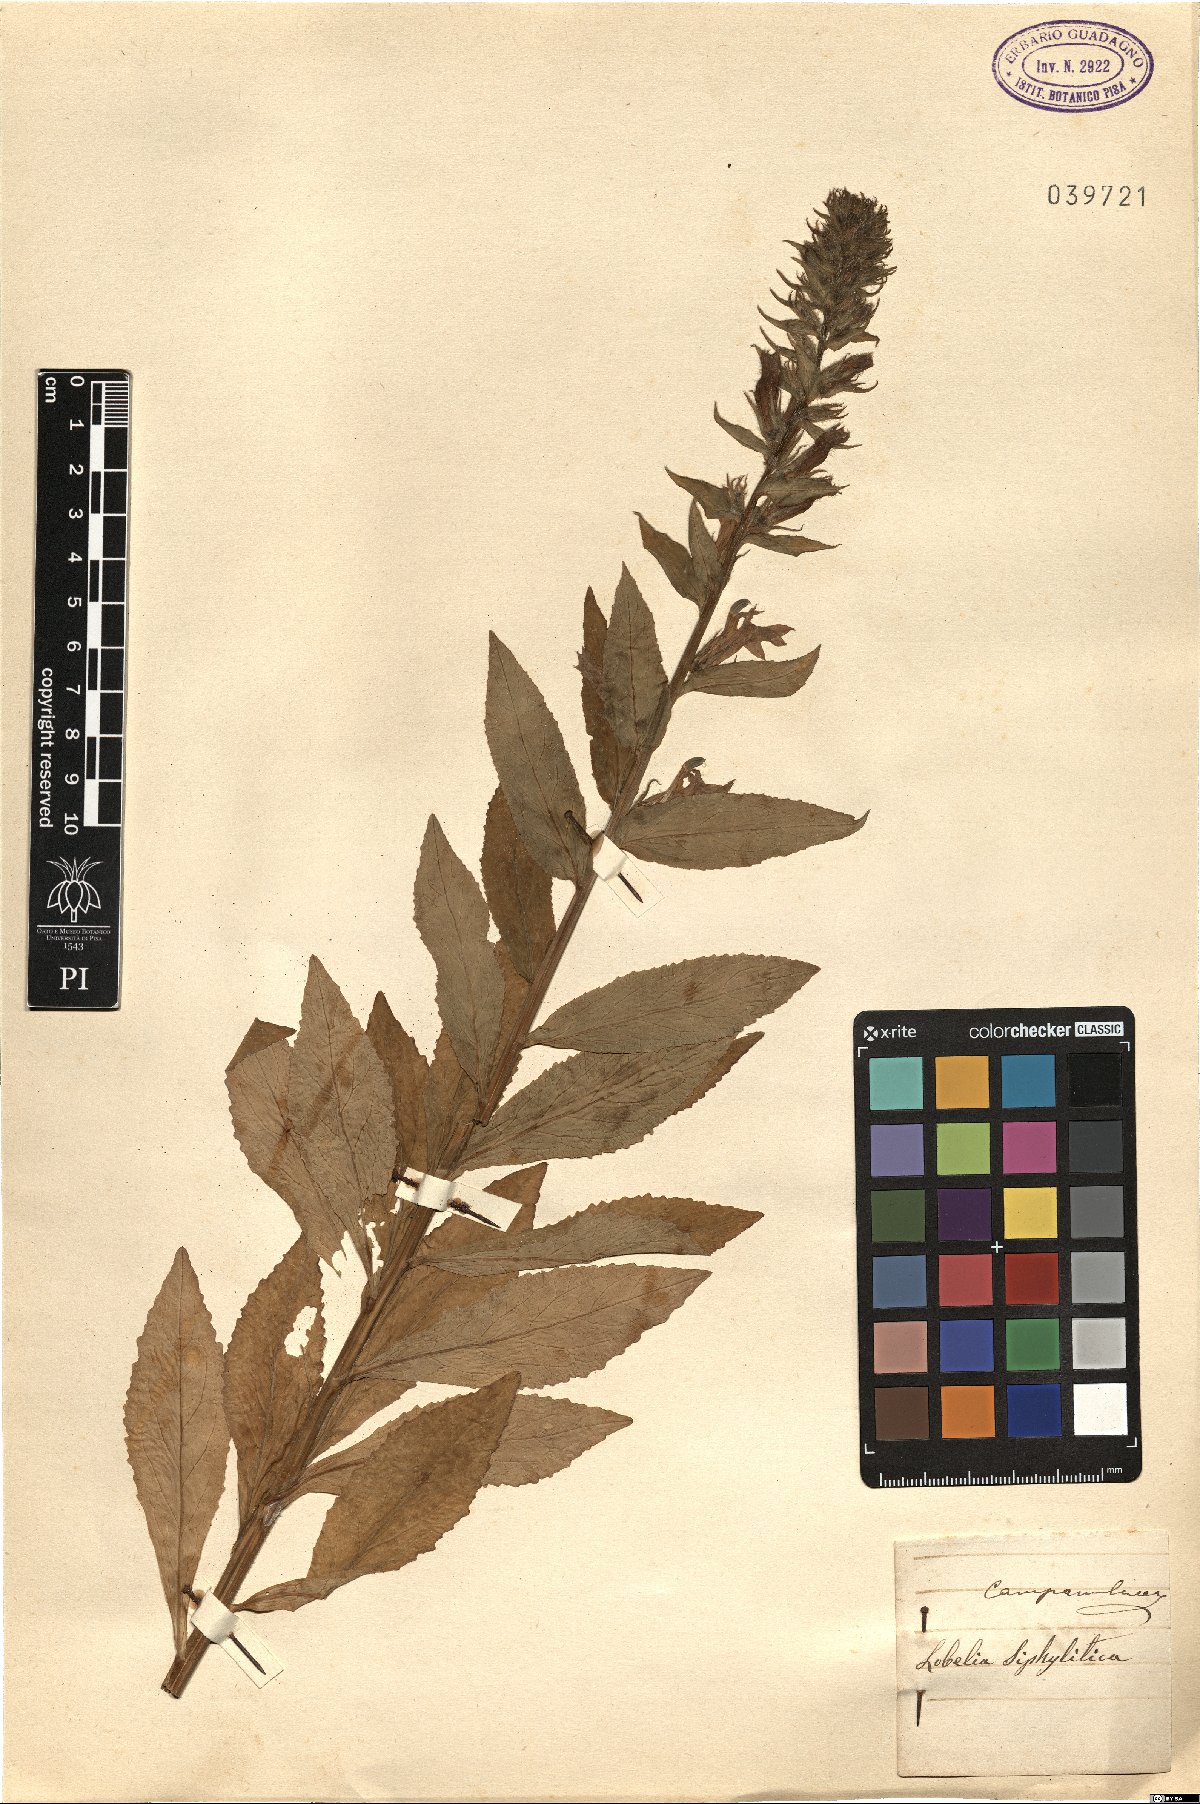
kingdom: Plantae
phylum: Tracheophyta
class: Magnoliopsida
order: Asterales
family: Campanulaceae
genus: Lobelia
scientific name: Lobelia siphilitica
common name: Great lobelia
